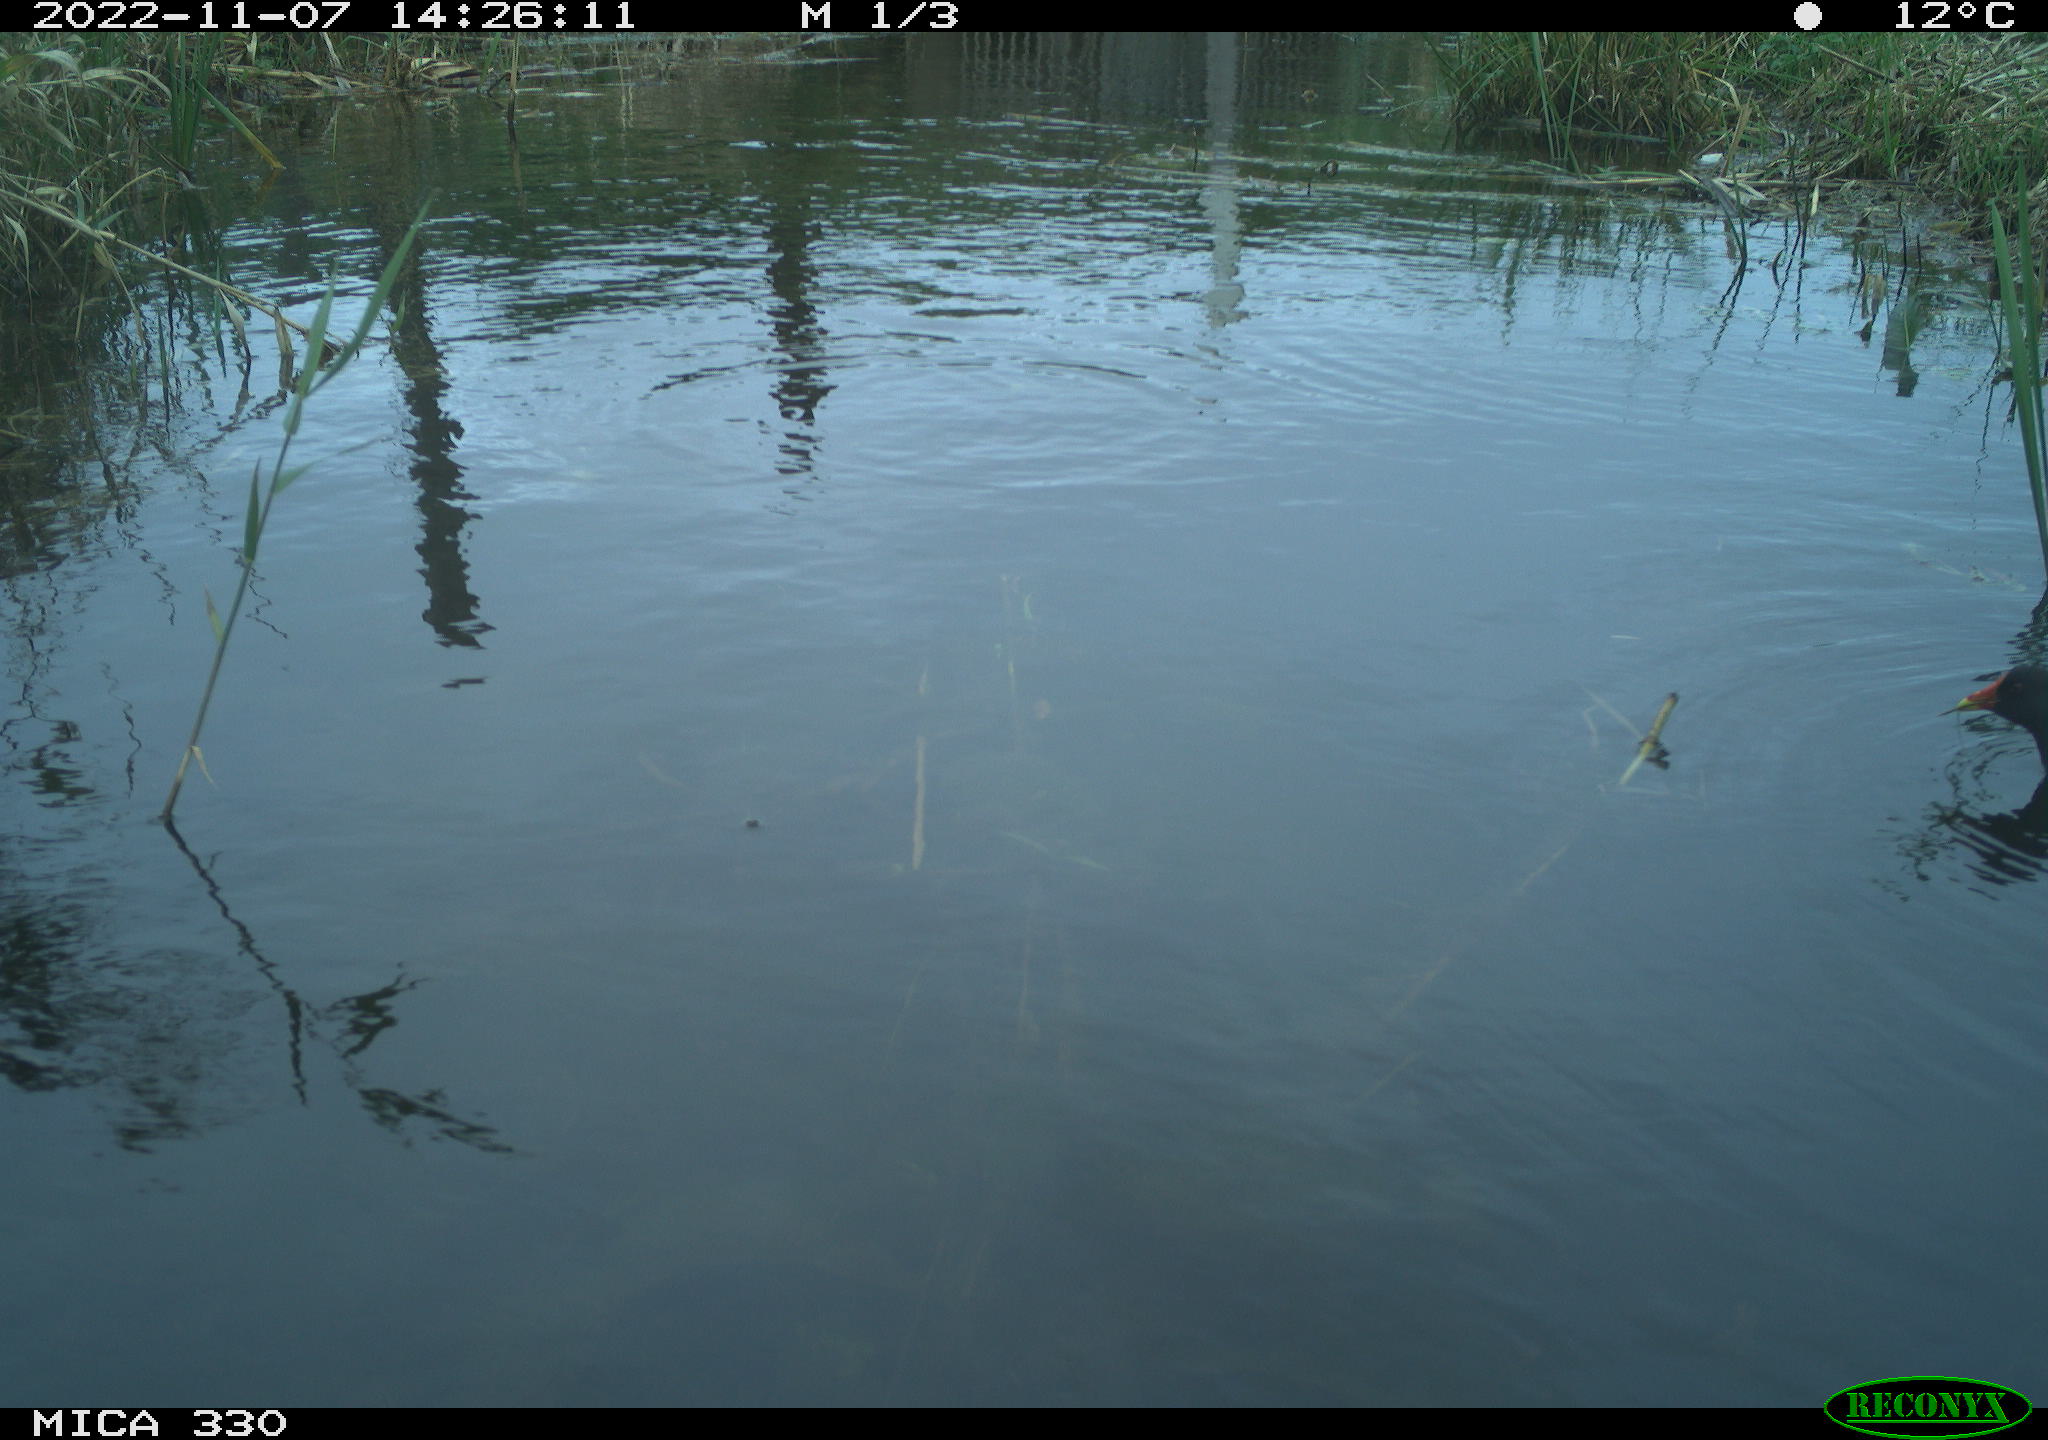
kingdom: Animalia
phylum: Chordata
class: Aves
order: Gruiformes
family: Rallidae
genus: Gallinula
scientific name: Gallinula chloropus
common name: Common moorhen
